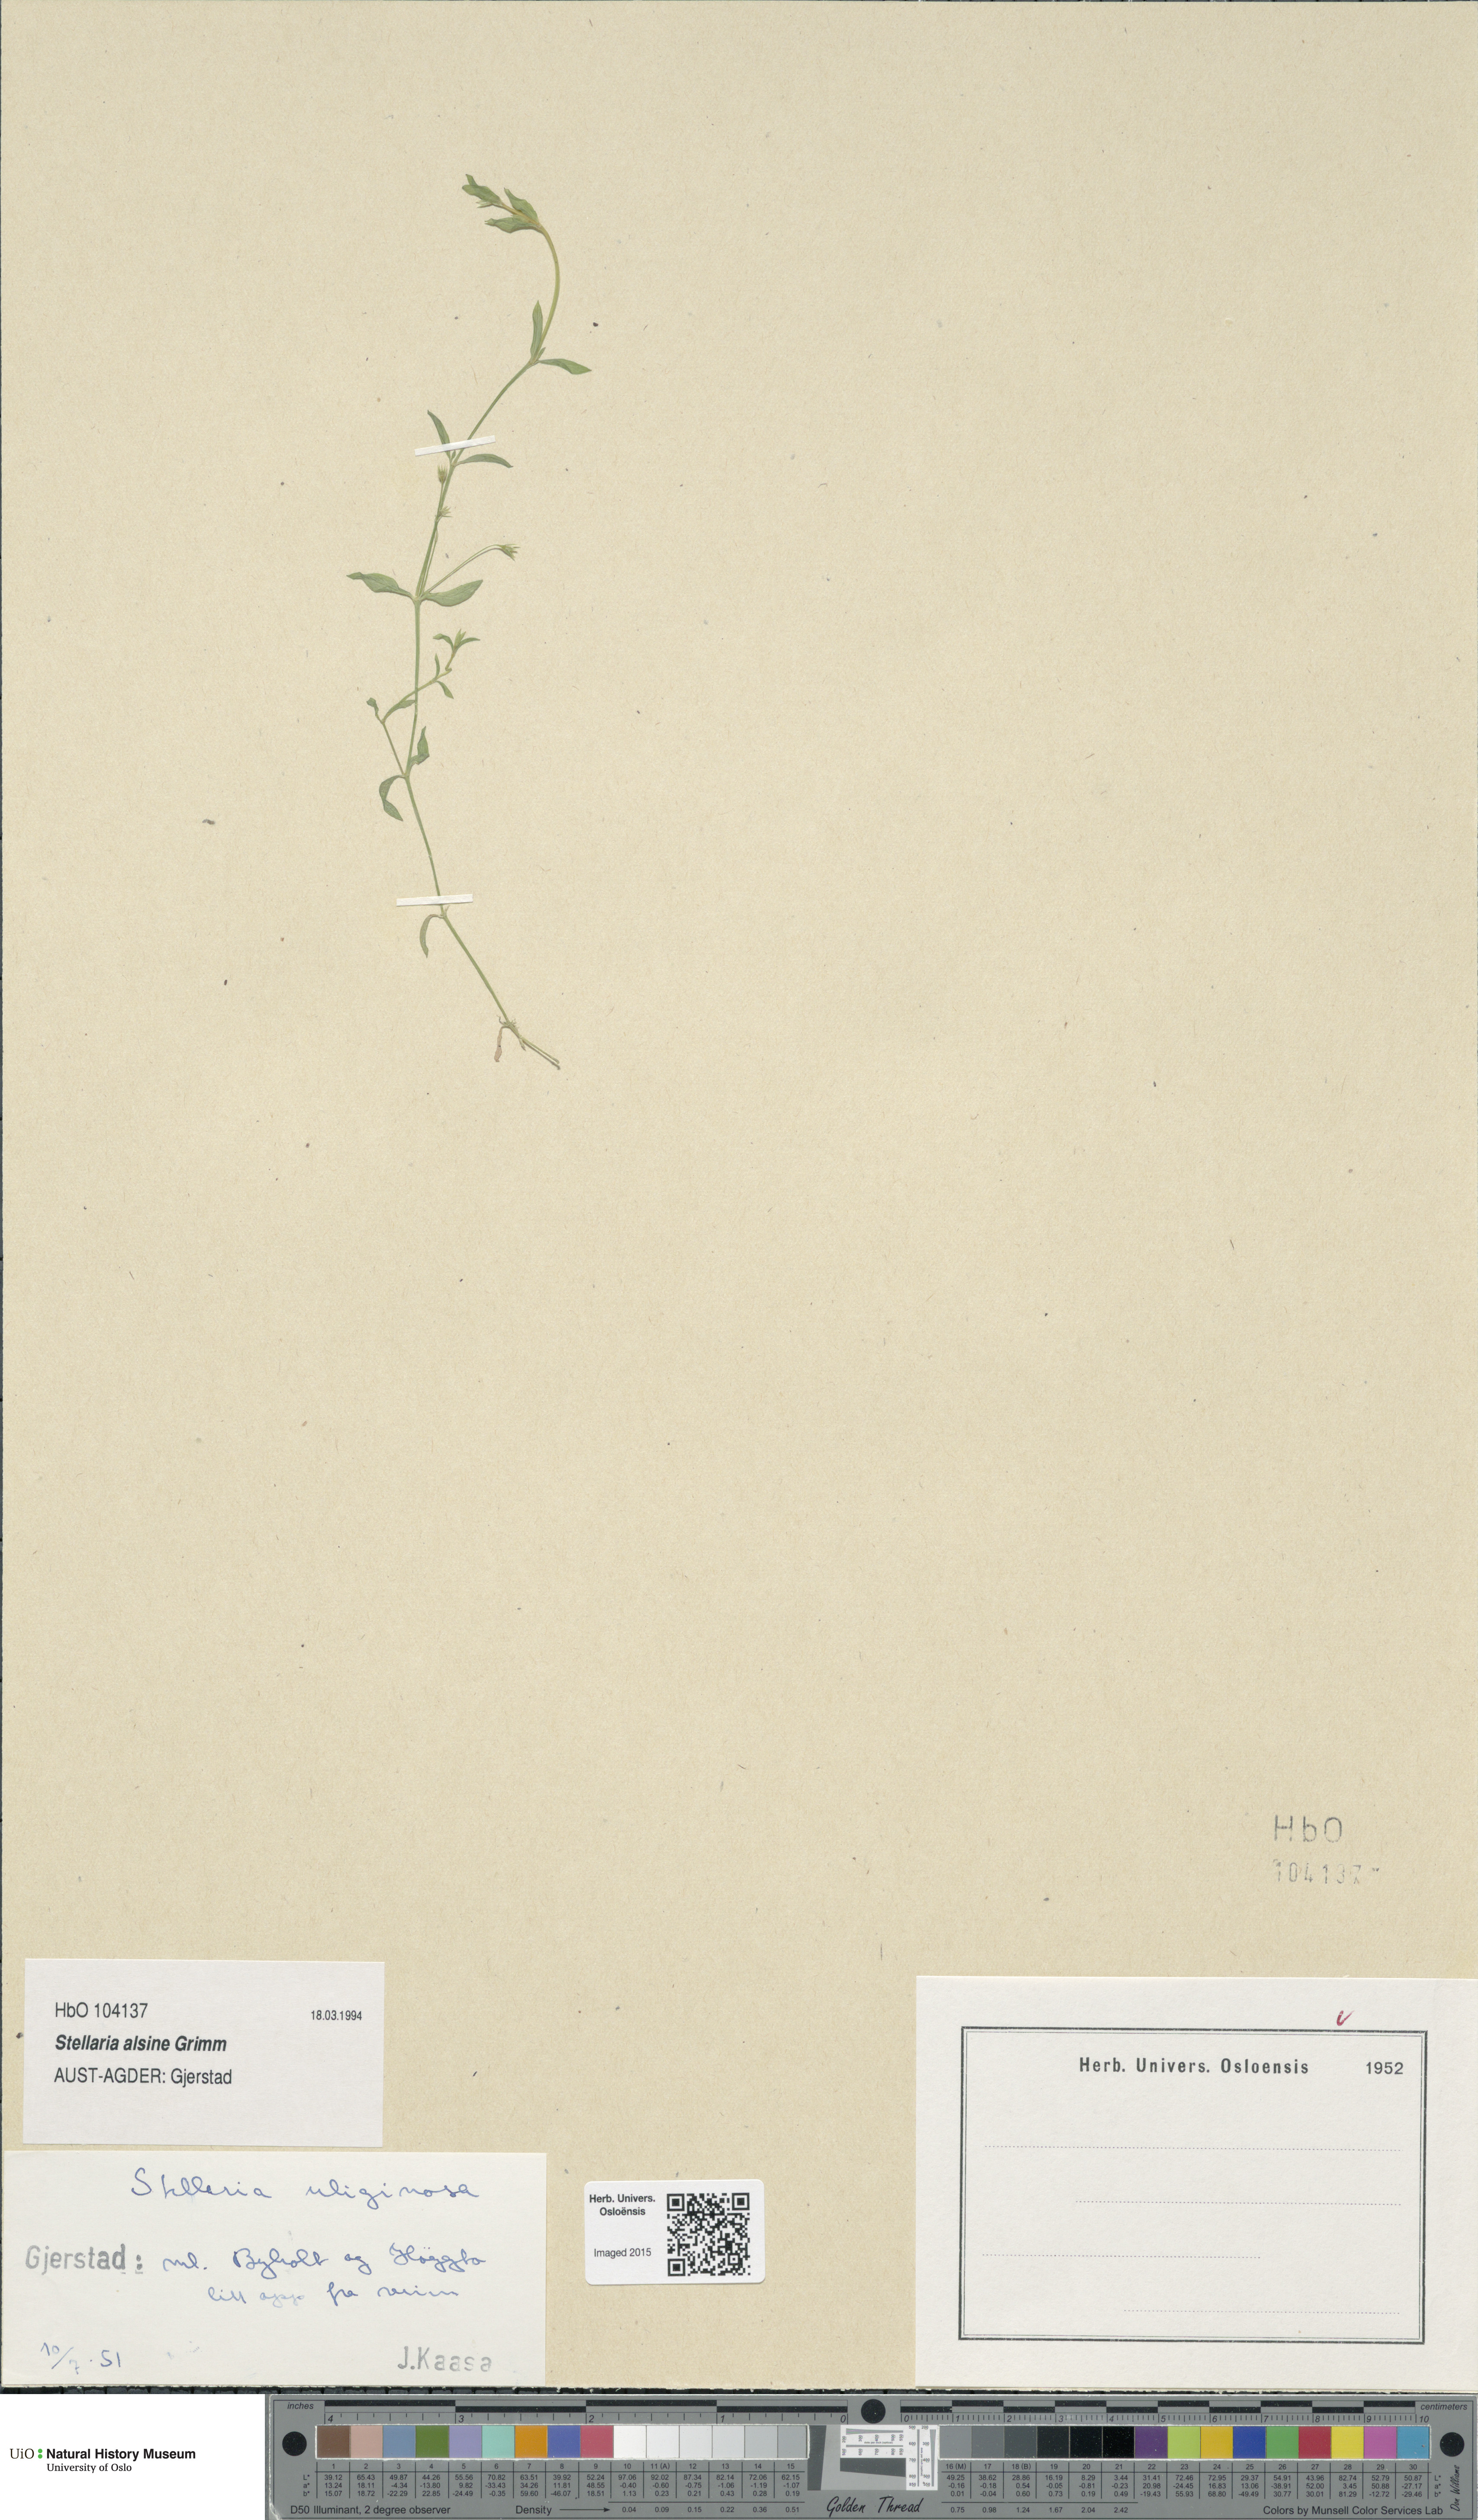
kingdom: Plantae
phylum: Tracheophyta
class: Magnoliopsida
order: Caryophyllales
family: Caryophyllaceae
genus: Stellaria
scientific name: Stellaria alsine
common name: Bog stitchwort
